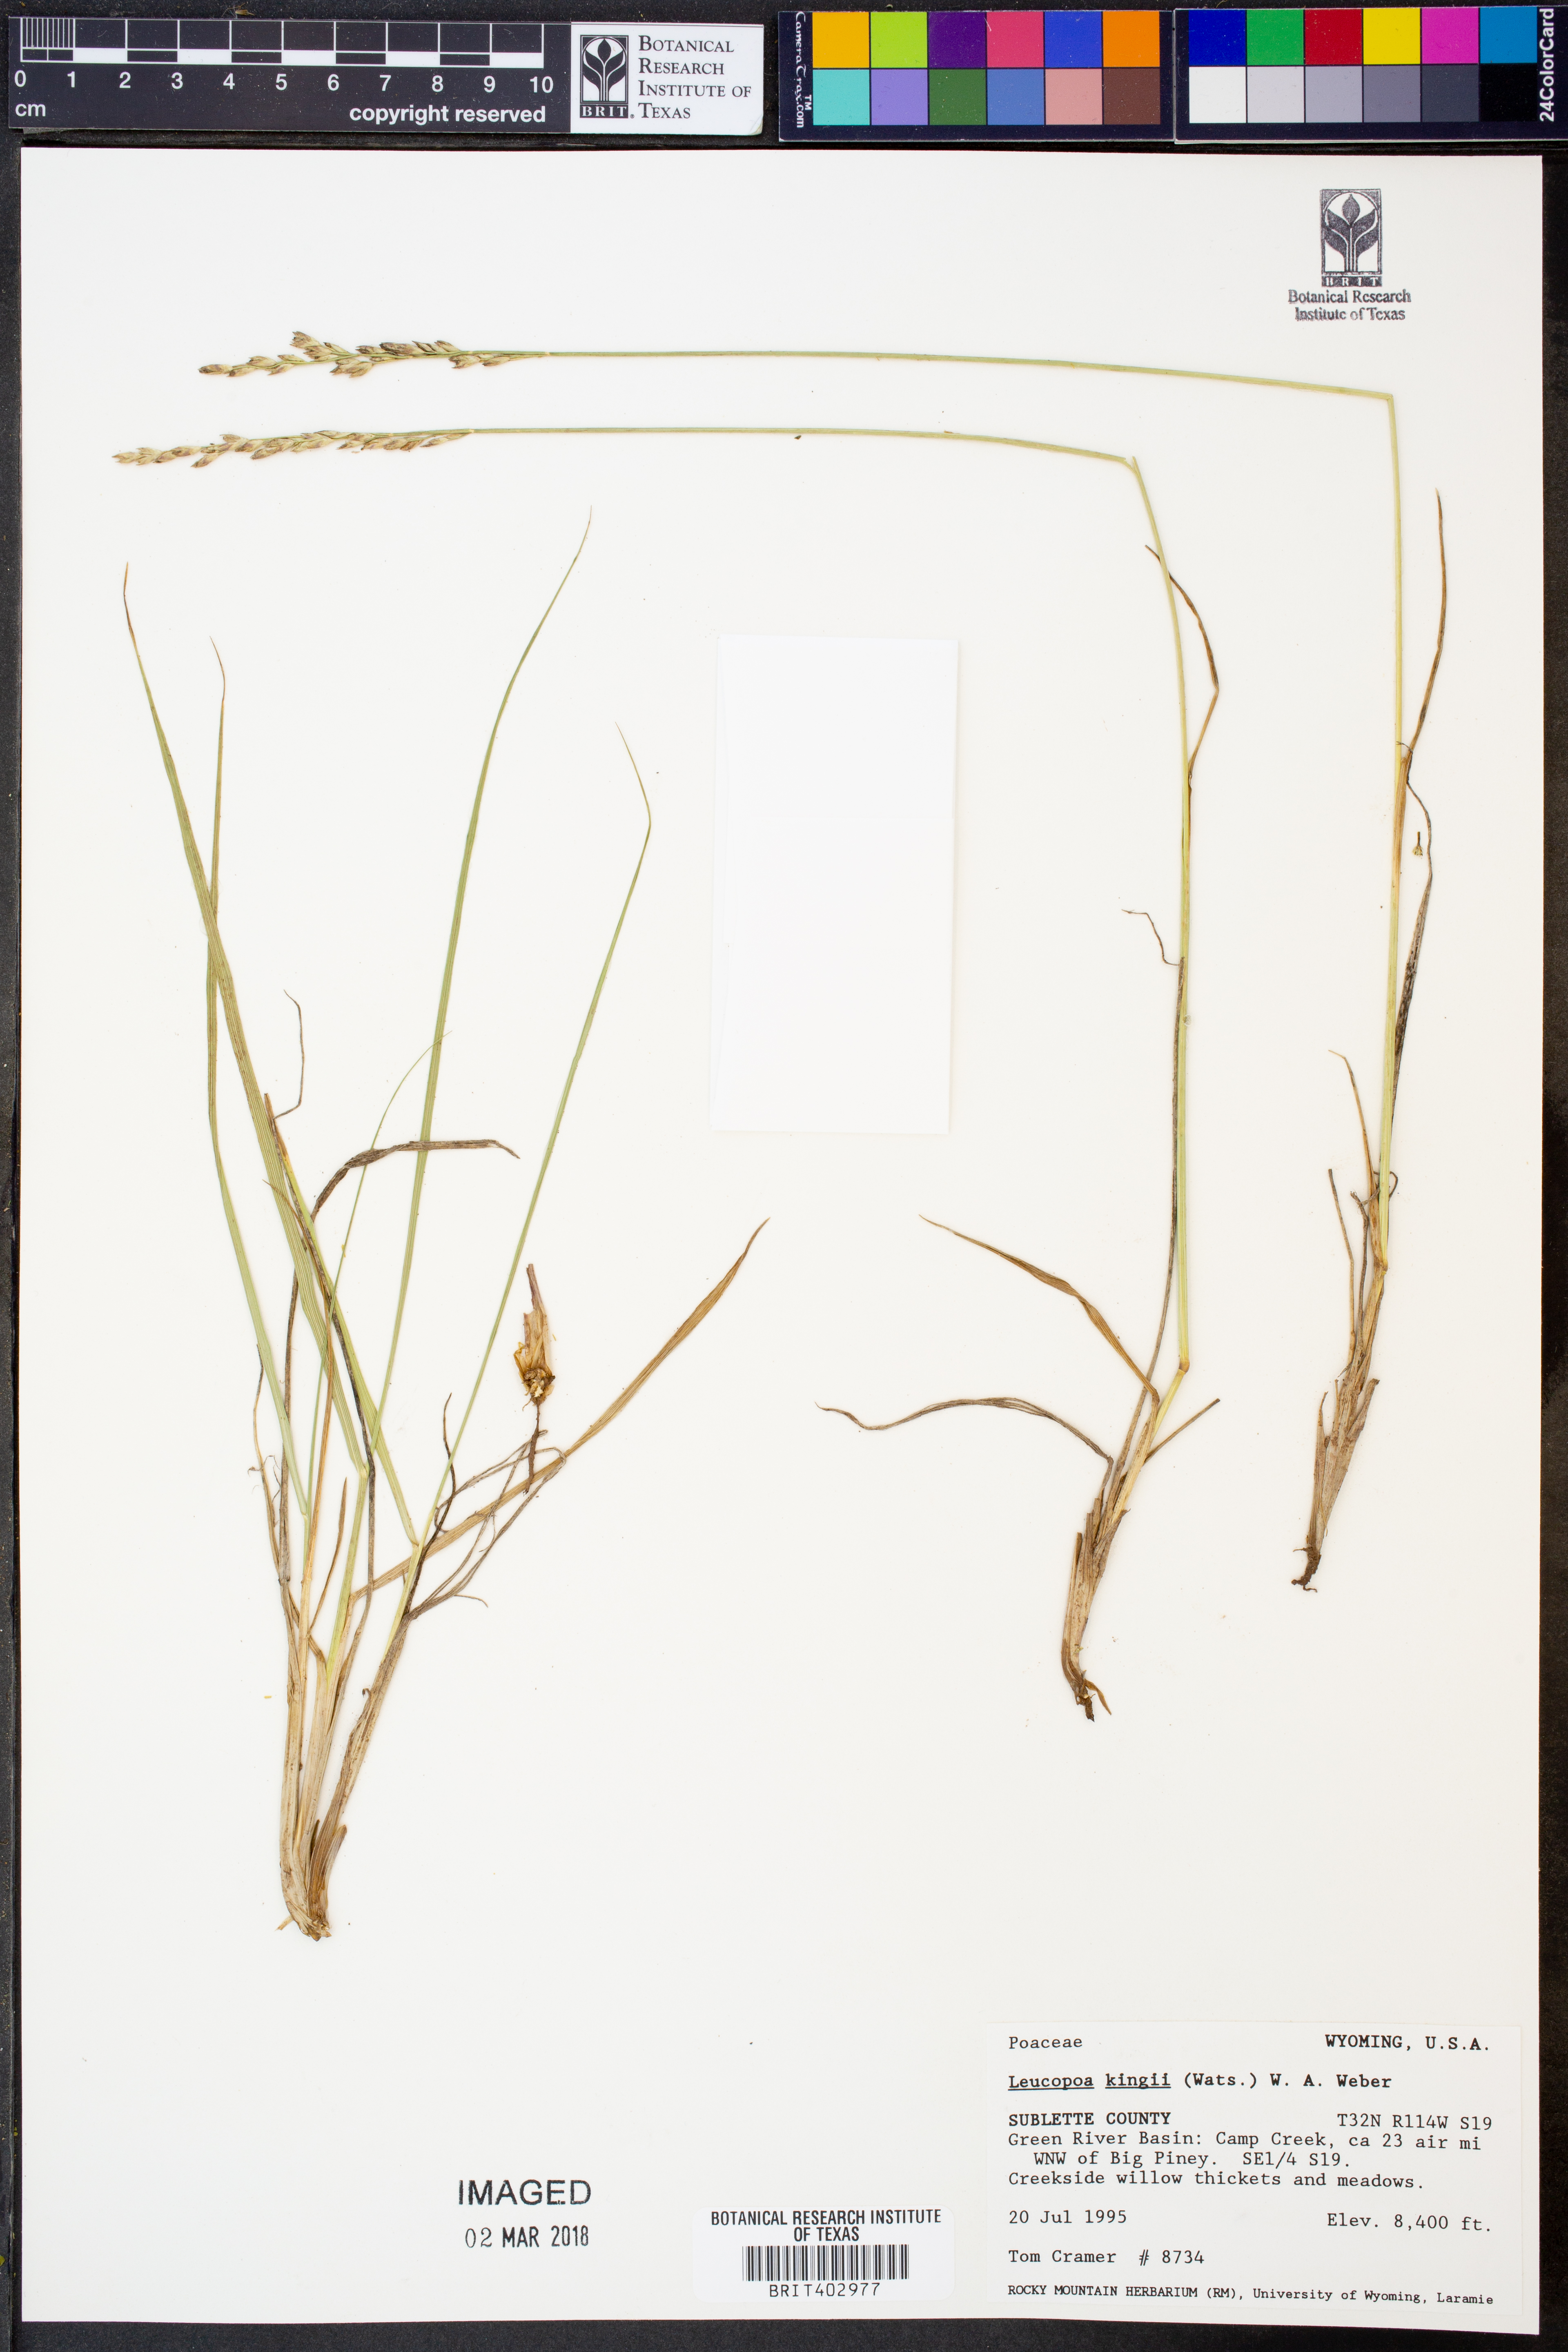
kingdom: Plantae
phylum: Tracheophyta
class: Liliopsida
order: Poales
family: Poaceae
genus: Festuca
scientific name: Festuca kingii
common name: Spike fescue
